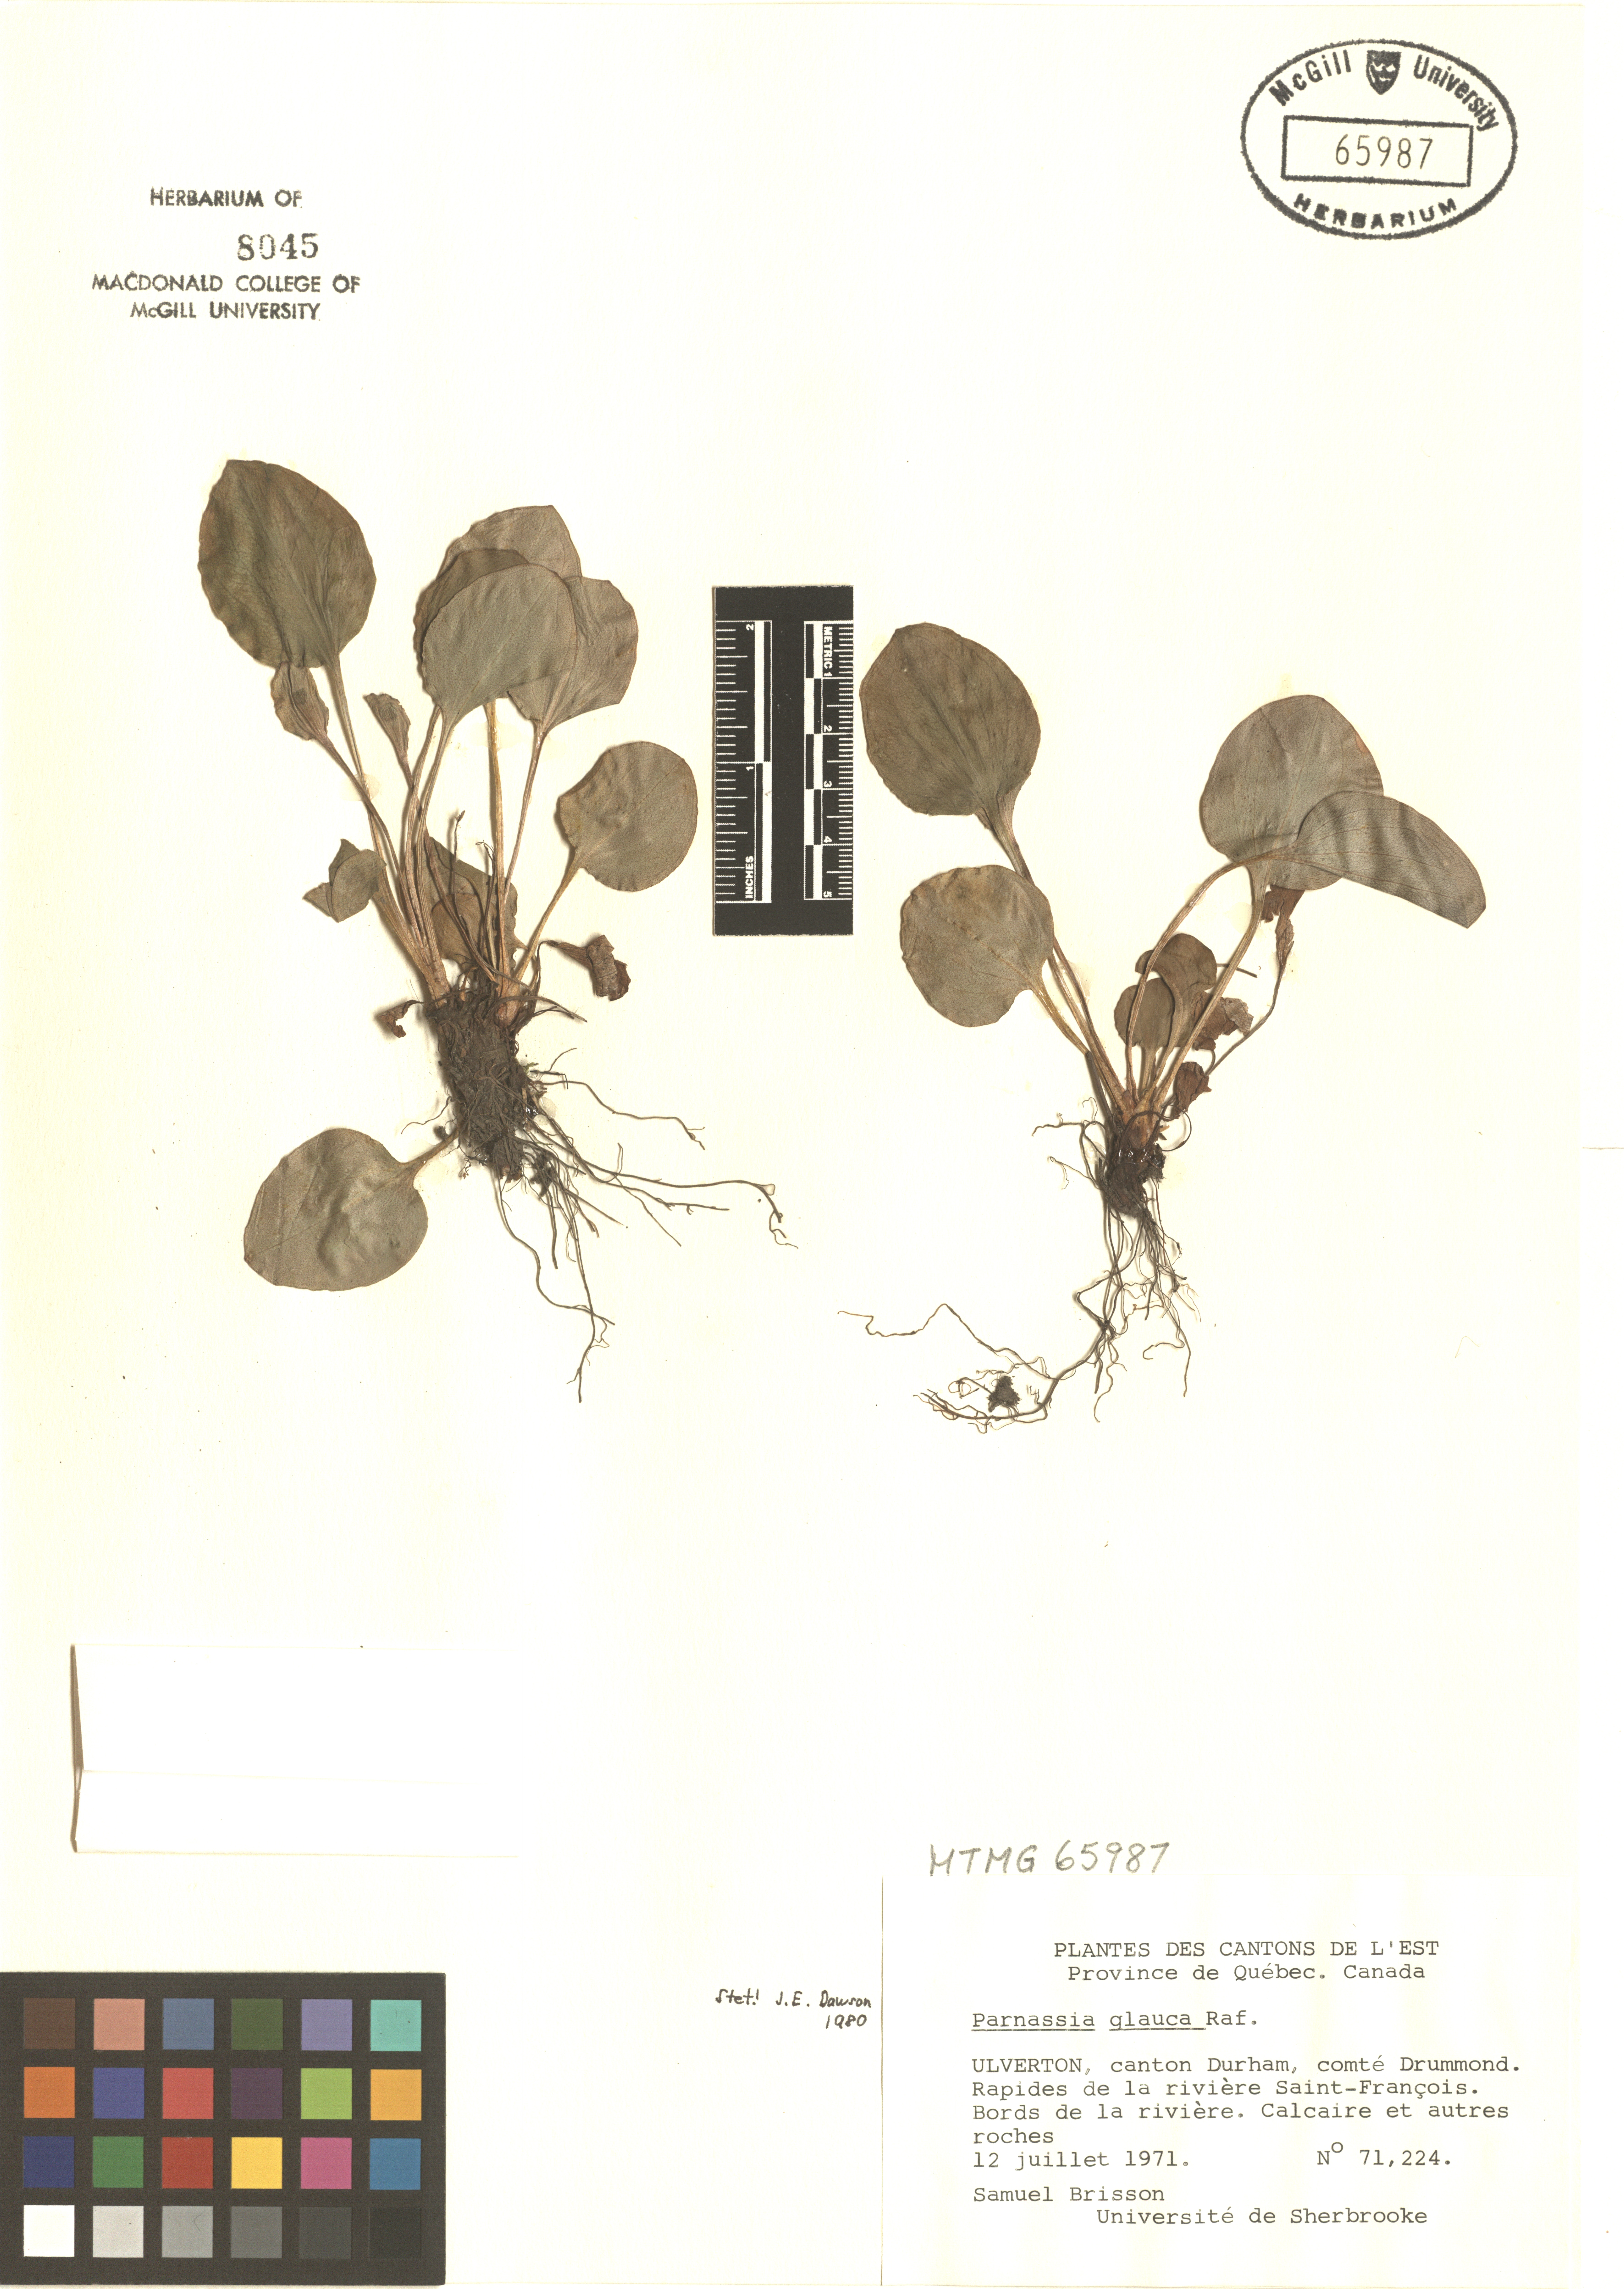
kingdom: Plantae
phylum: Tracheophyta
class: Magnoliopsida
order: Celastrales
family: Parnassiaceae
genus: Parnassia
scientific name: Parnassia glauca
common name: American grass-of-parnassus
